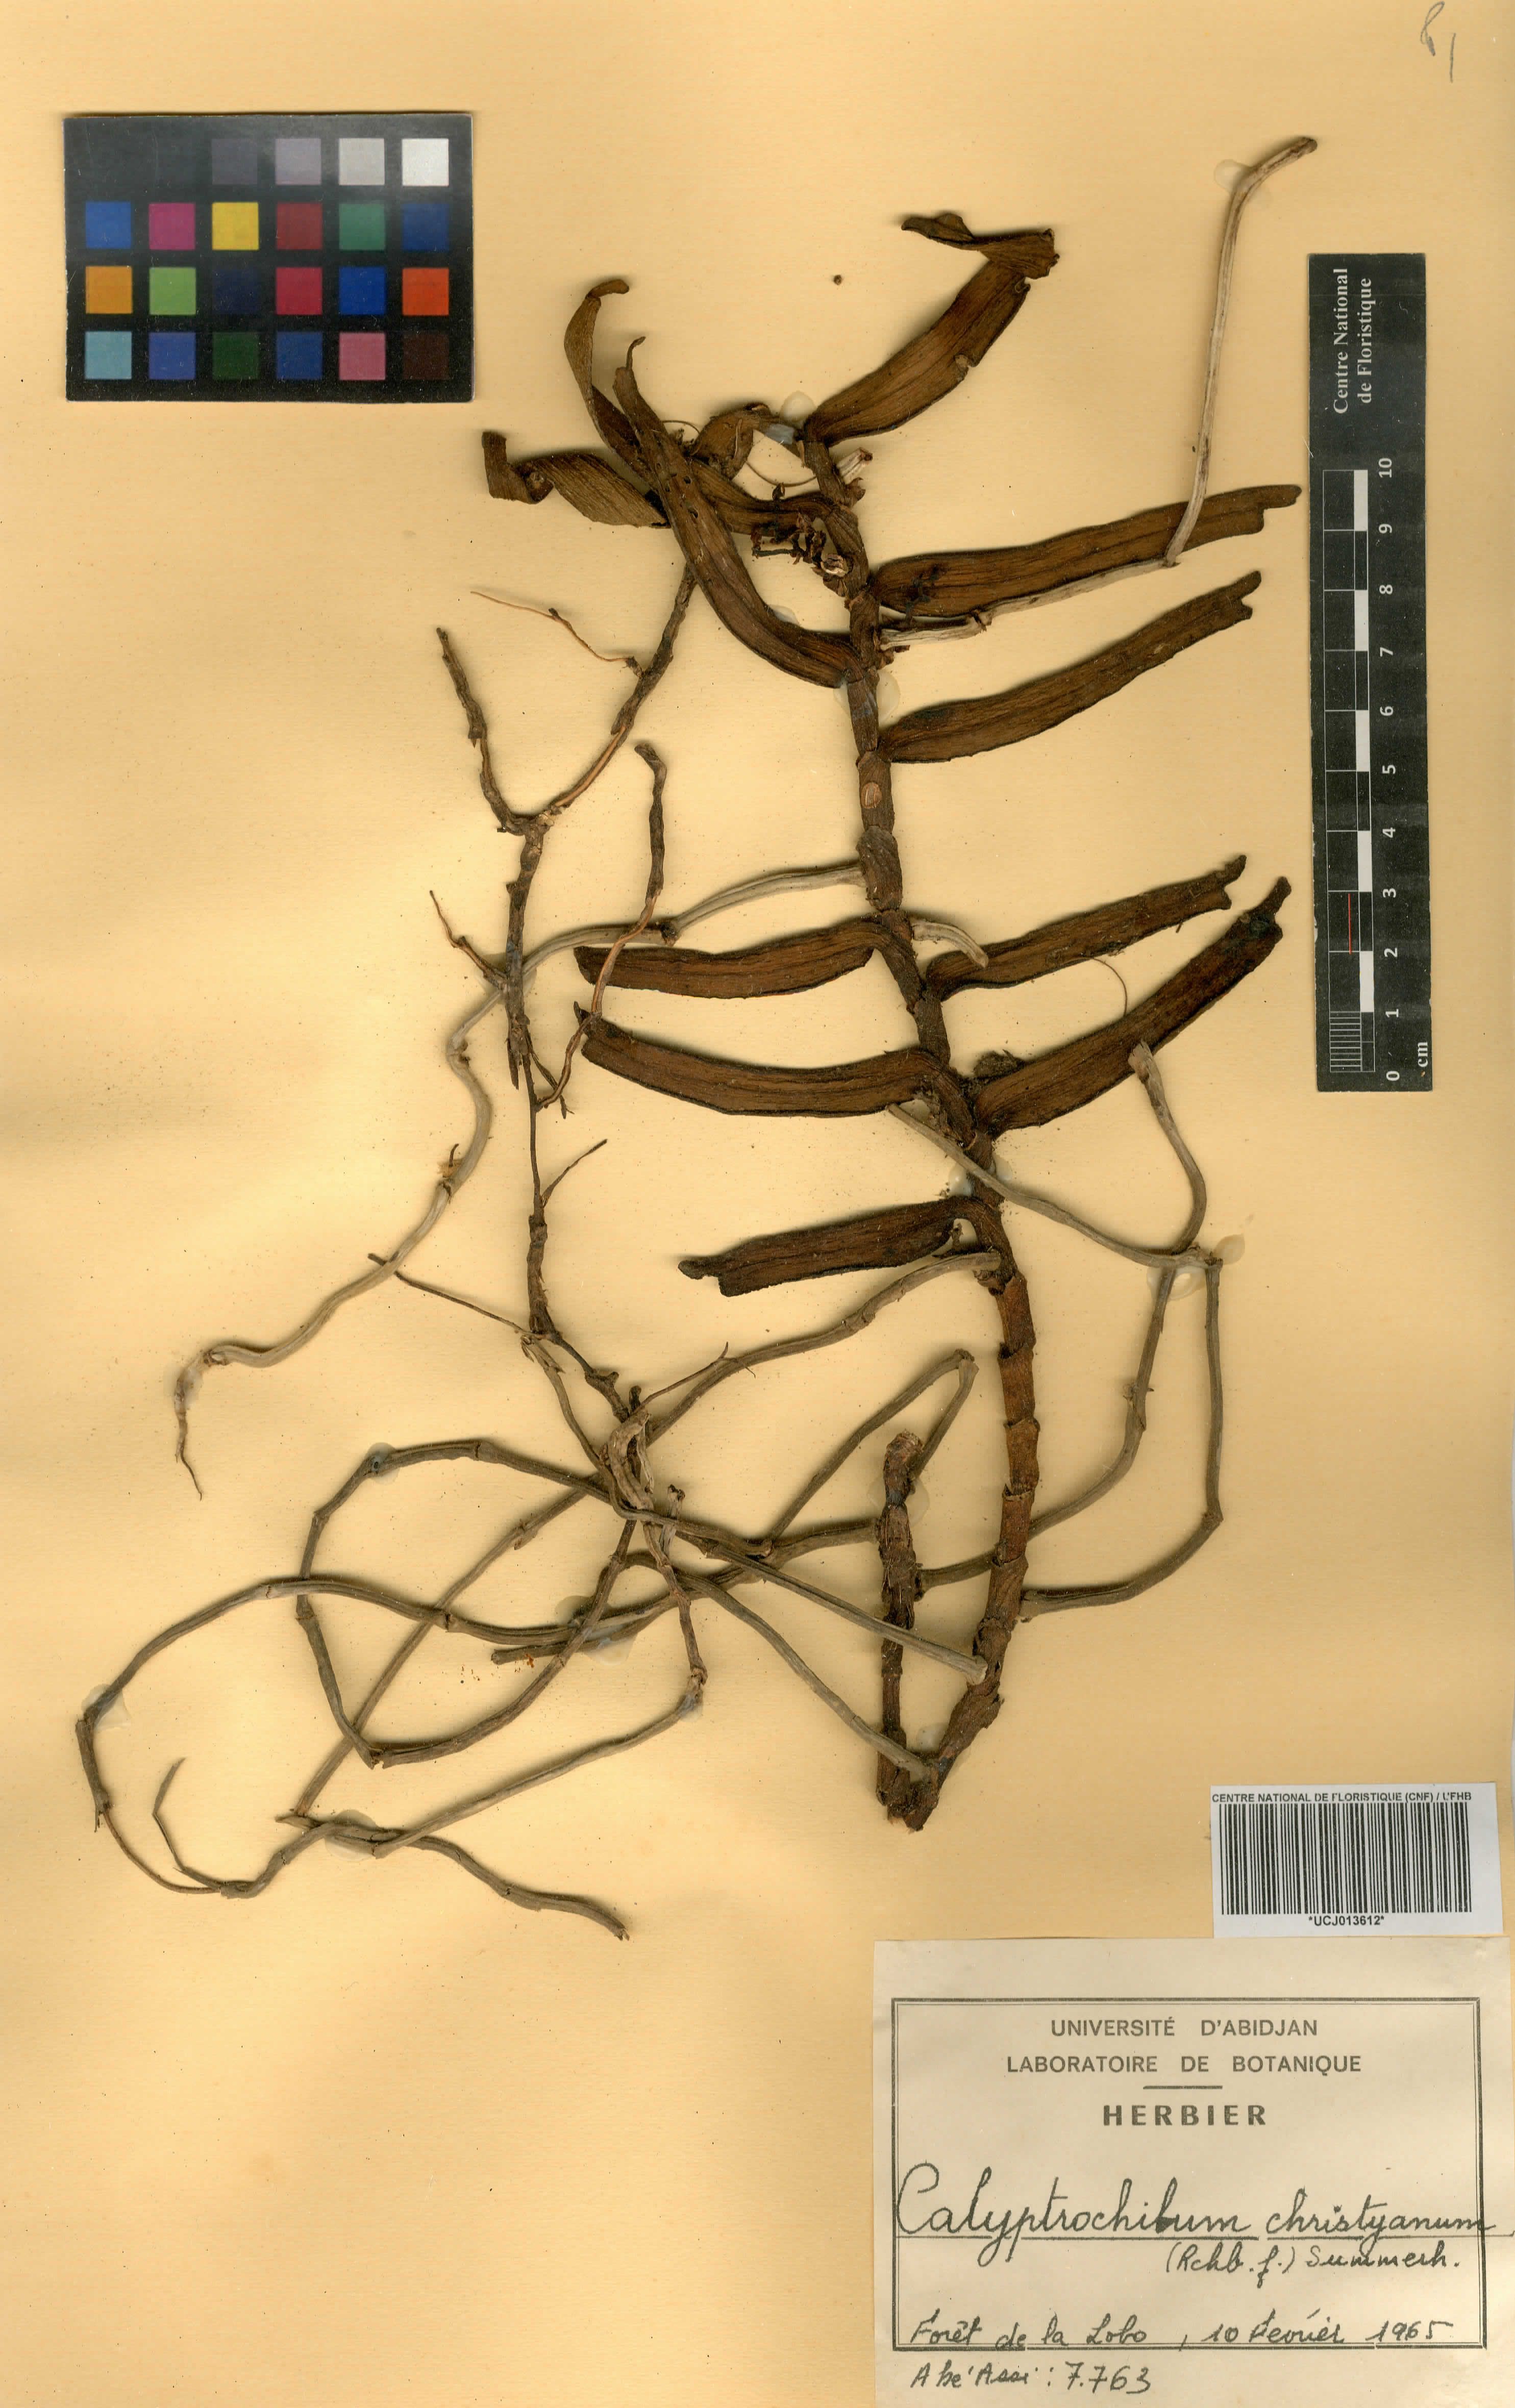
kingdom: Plantae
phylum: Tracheophyta
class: Liliopsida
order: Asparagales
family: Orchidaceae
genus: Calyptrochilum
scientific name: Calyptrochilum christyanum
